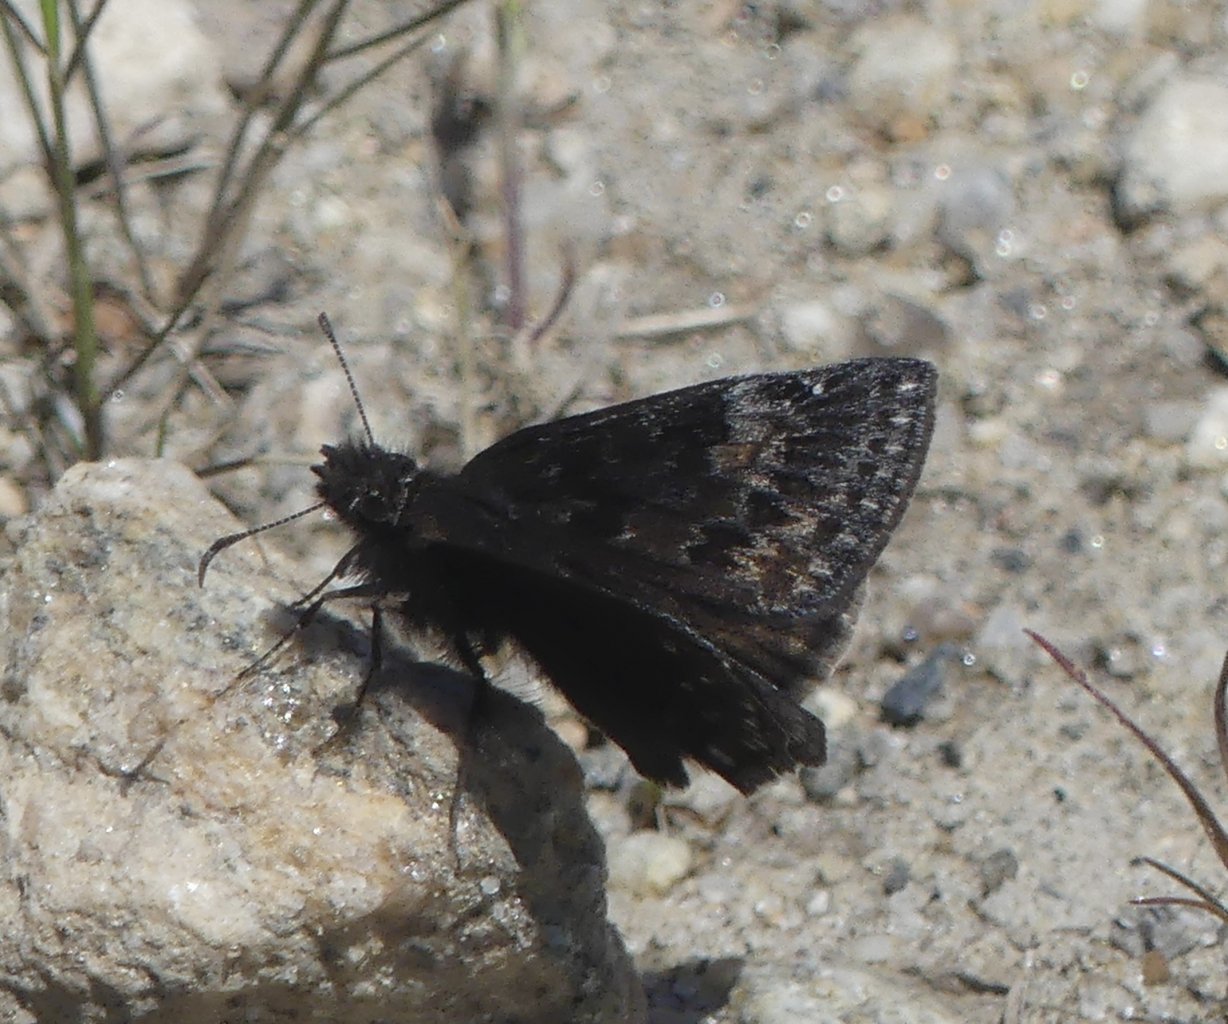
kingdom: Animalia
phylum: Arthropoda
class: Insecta
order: Lepidoptera
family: Hesperiidae
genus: Gesta
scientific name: Gesta
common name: Wild Indigo Duskywing
